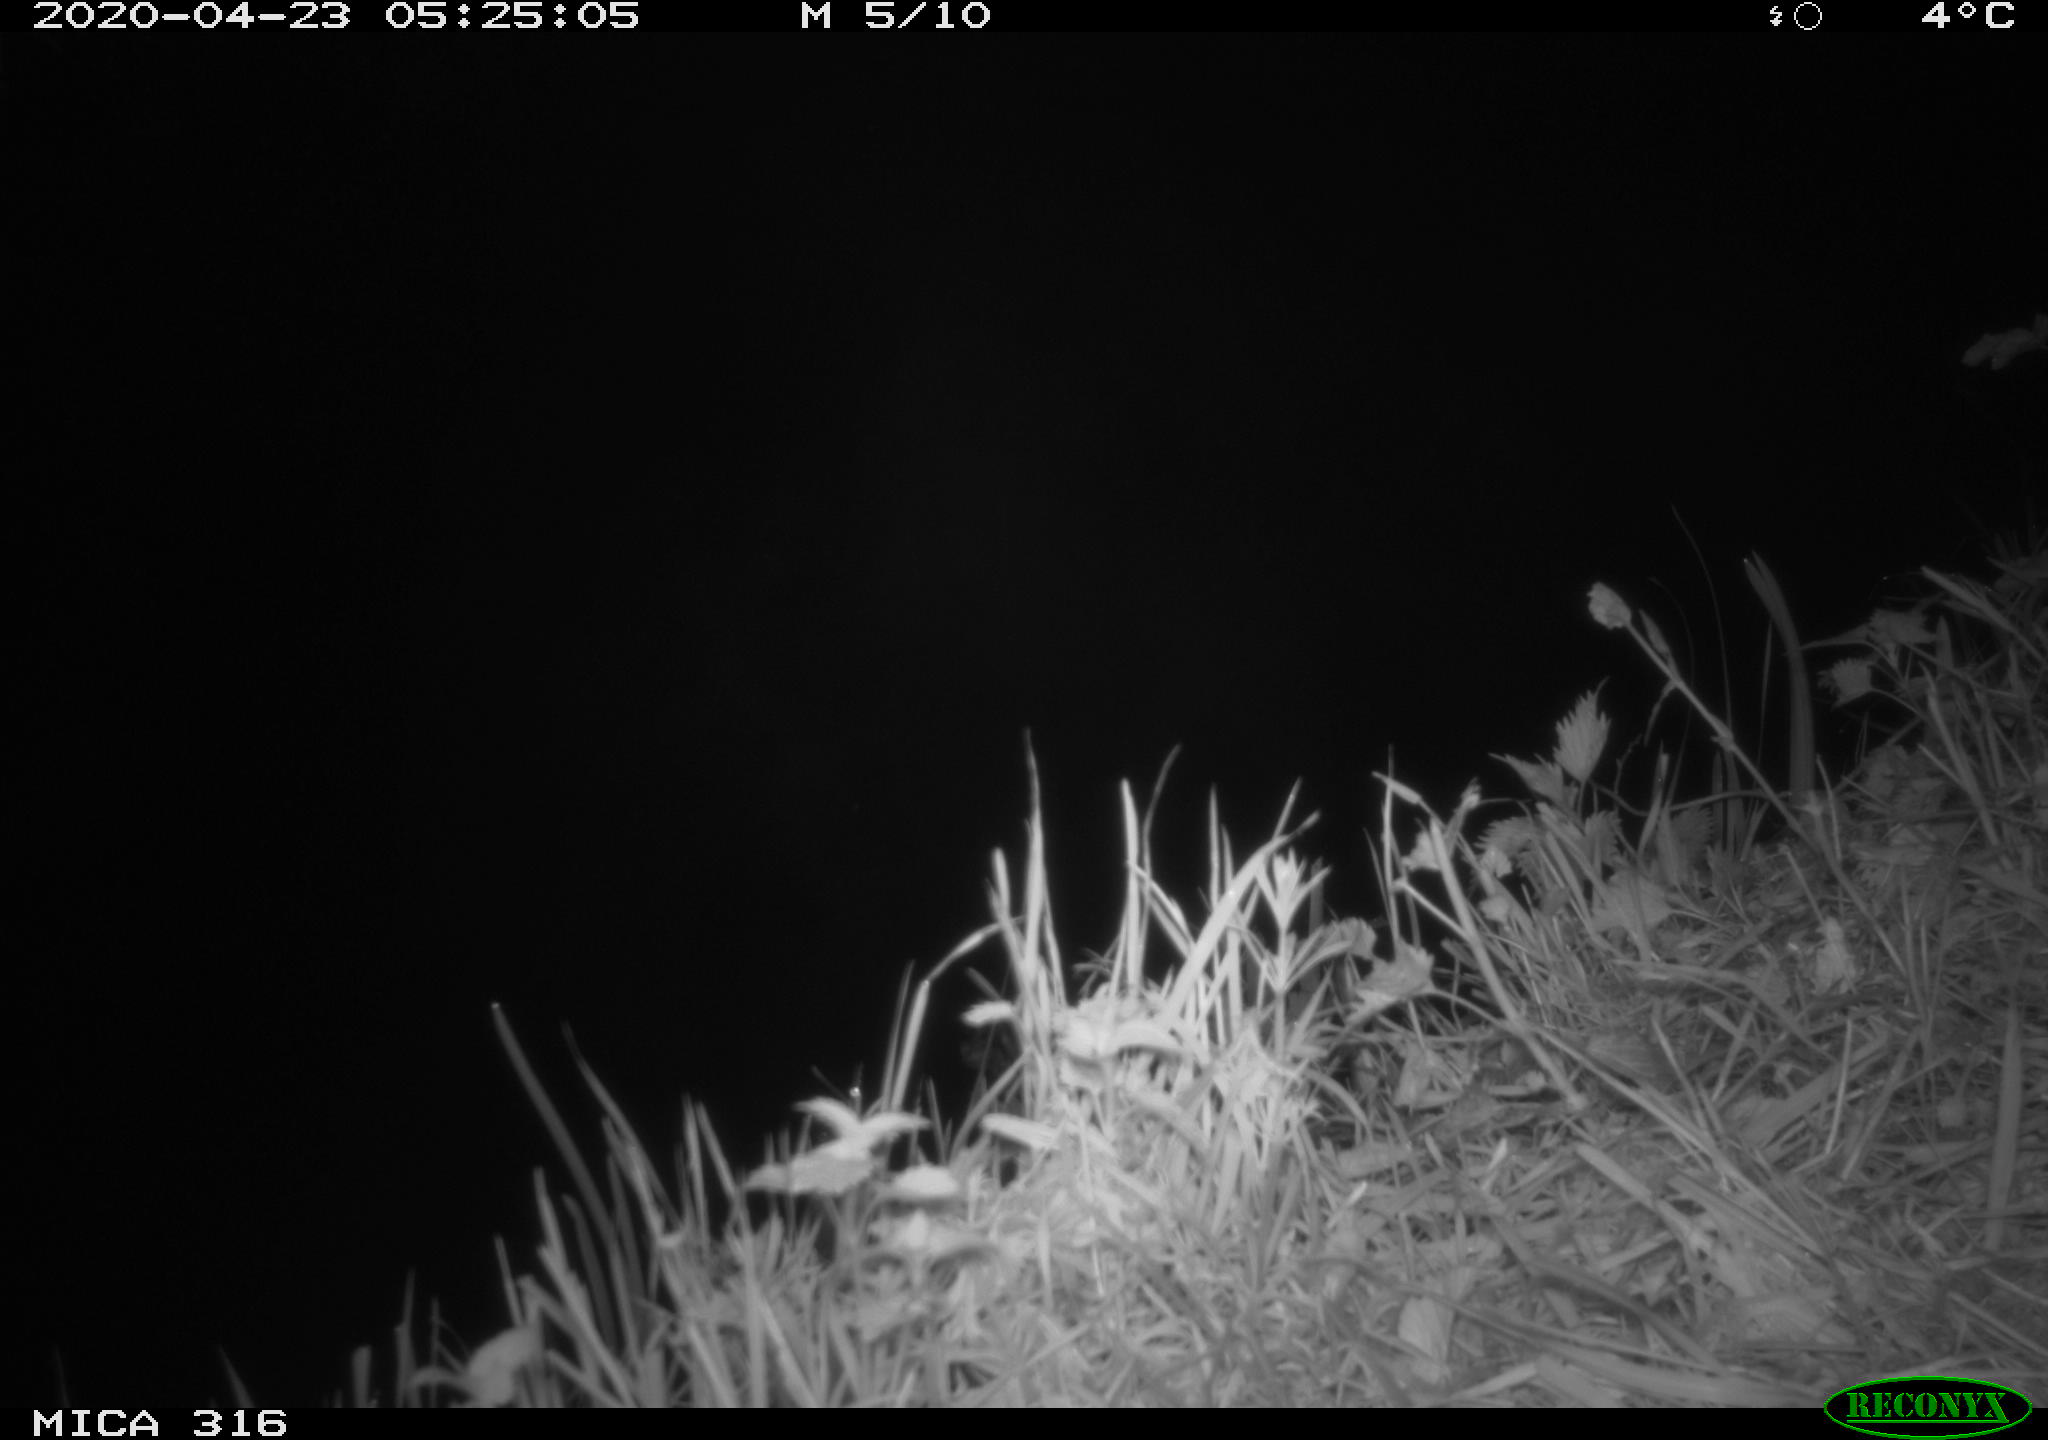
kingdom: Animalia
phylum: Chordata
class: Aves
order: Gruiformes
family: Rallidae
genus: Gallinula
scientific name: Gallinula chloropus
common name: Common moorhen
